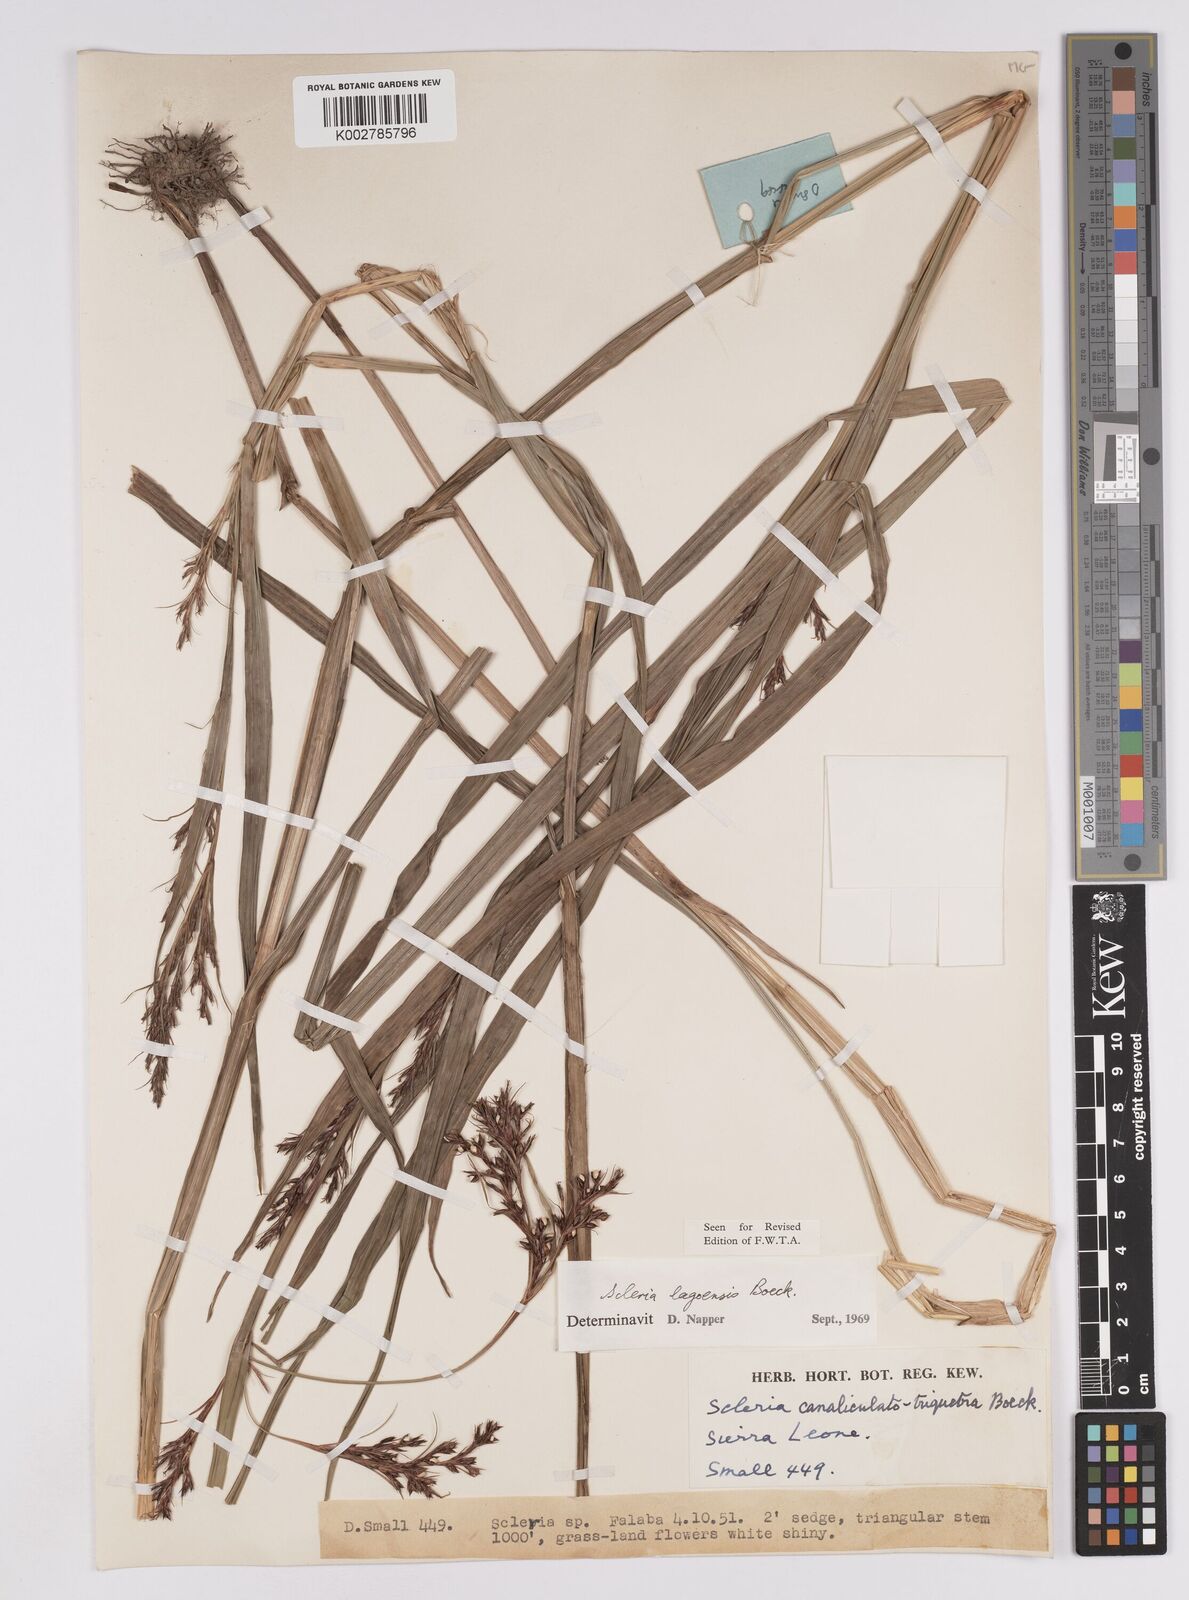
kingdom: Plantae
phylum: Tracheophyta
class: Liliopsida
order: Poales
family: Cyperaceae
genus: Scleria
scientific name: Scleria lagoensis
